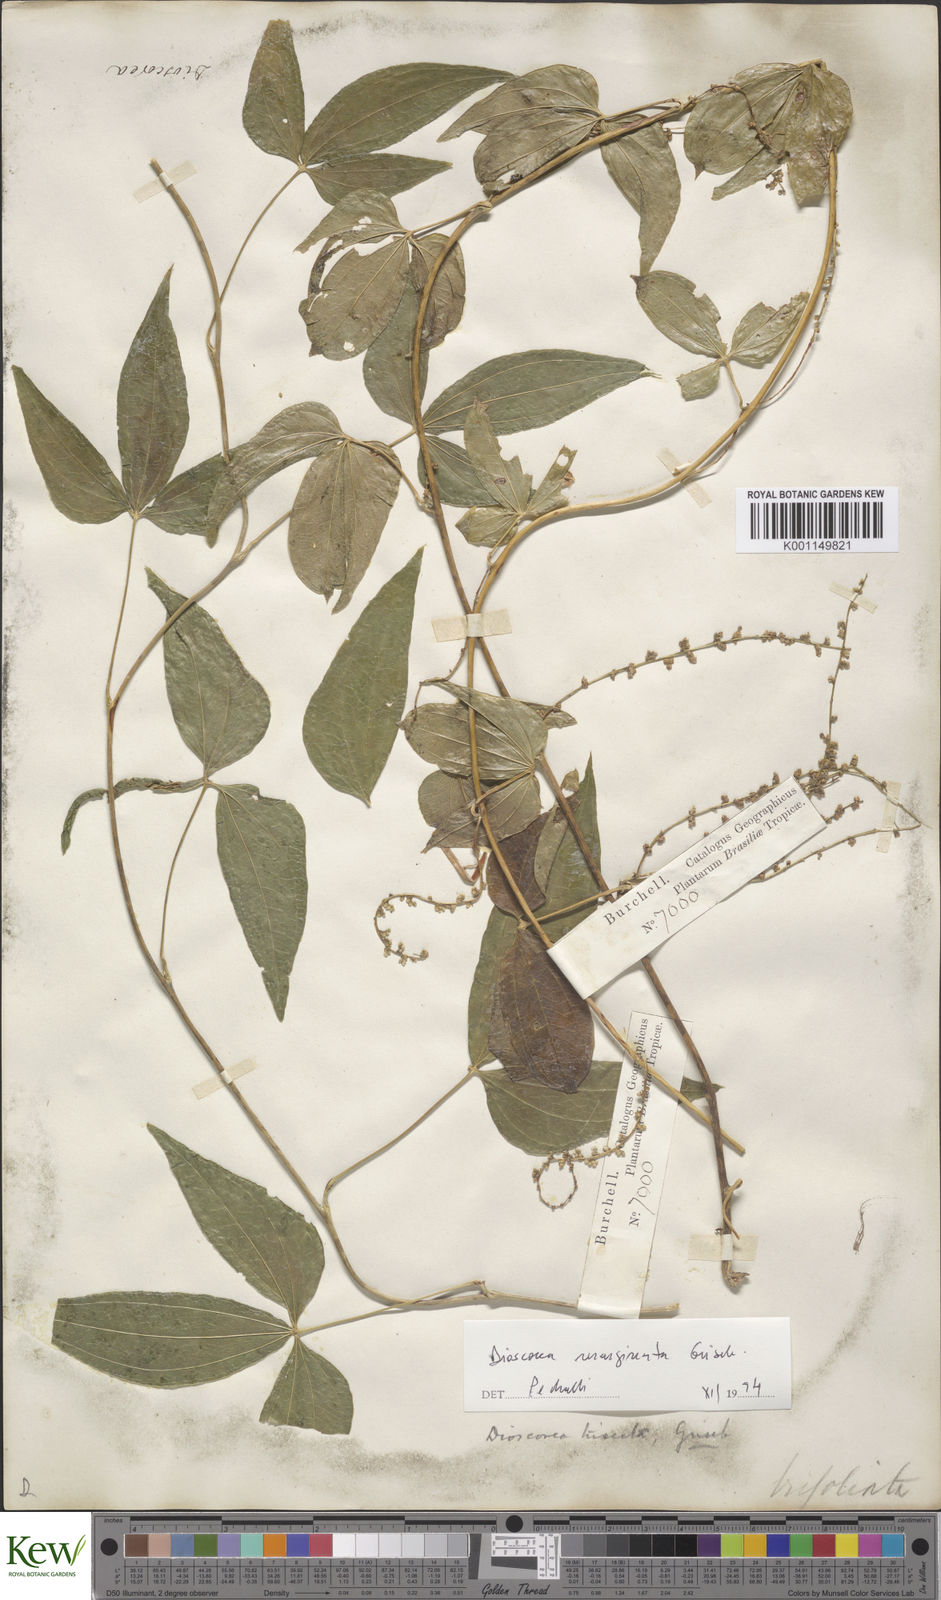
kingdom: Plantae
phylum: Tracheophyta
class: Liliopsida
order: Dioscoreales
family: Dioscoreaceae
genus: Dioscorea
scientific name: Dioscorea trisecta
